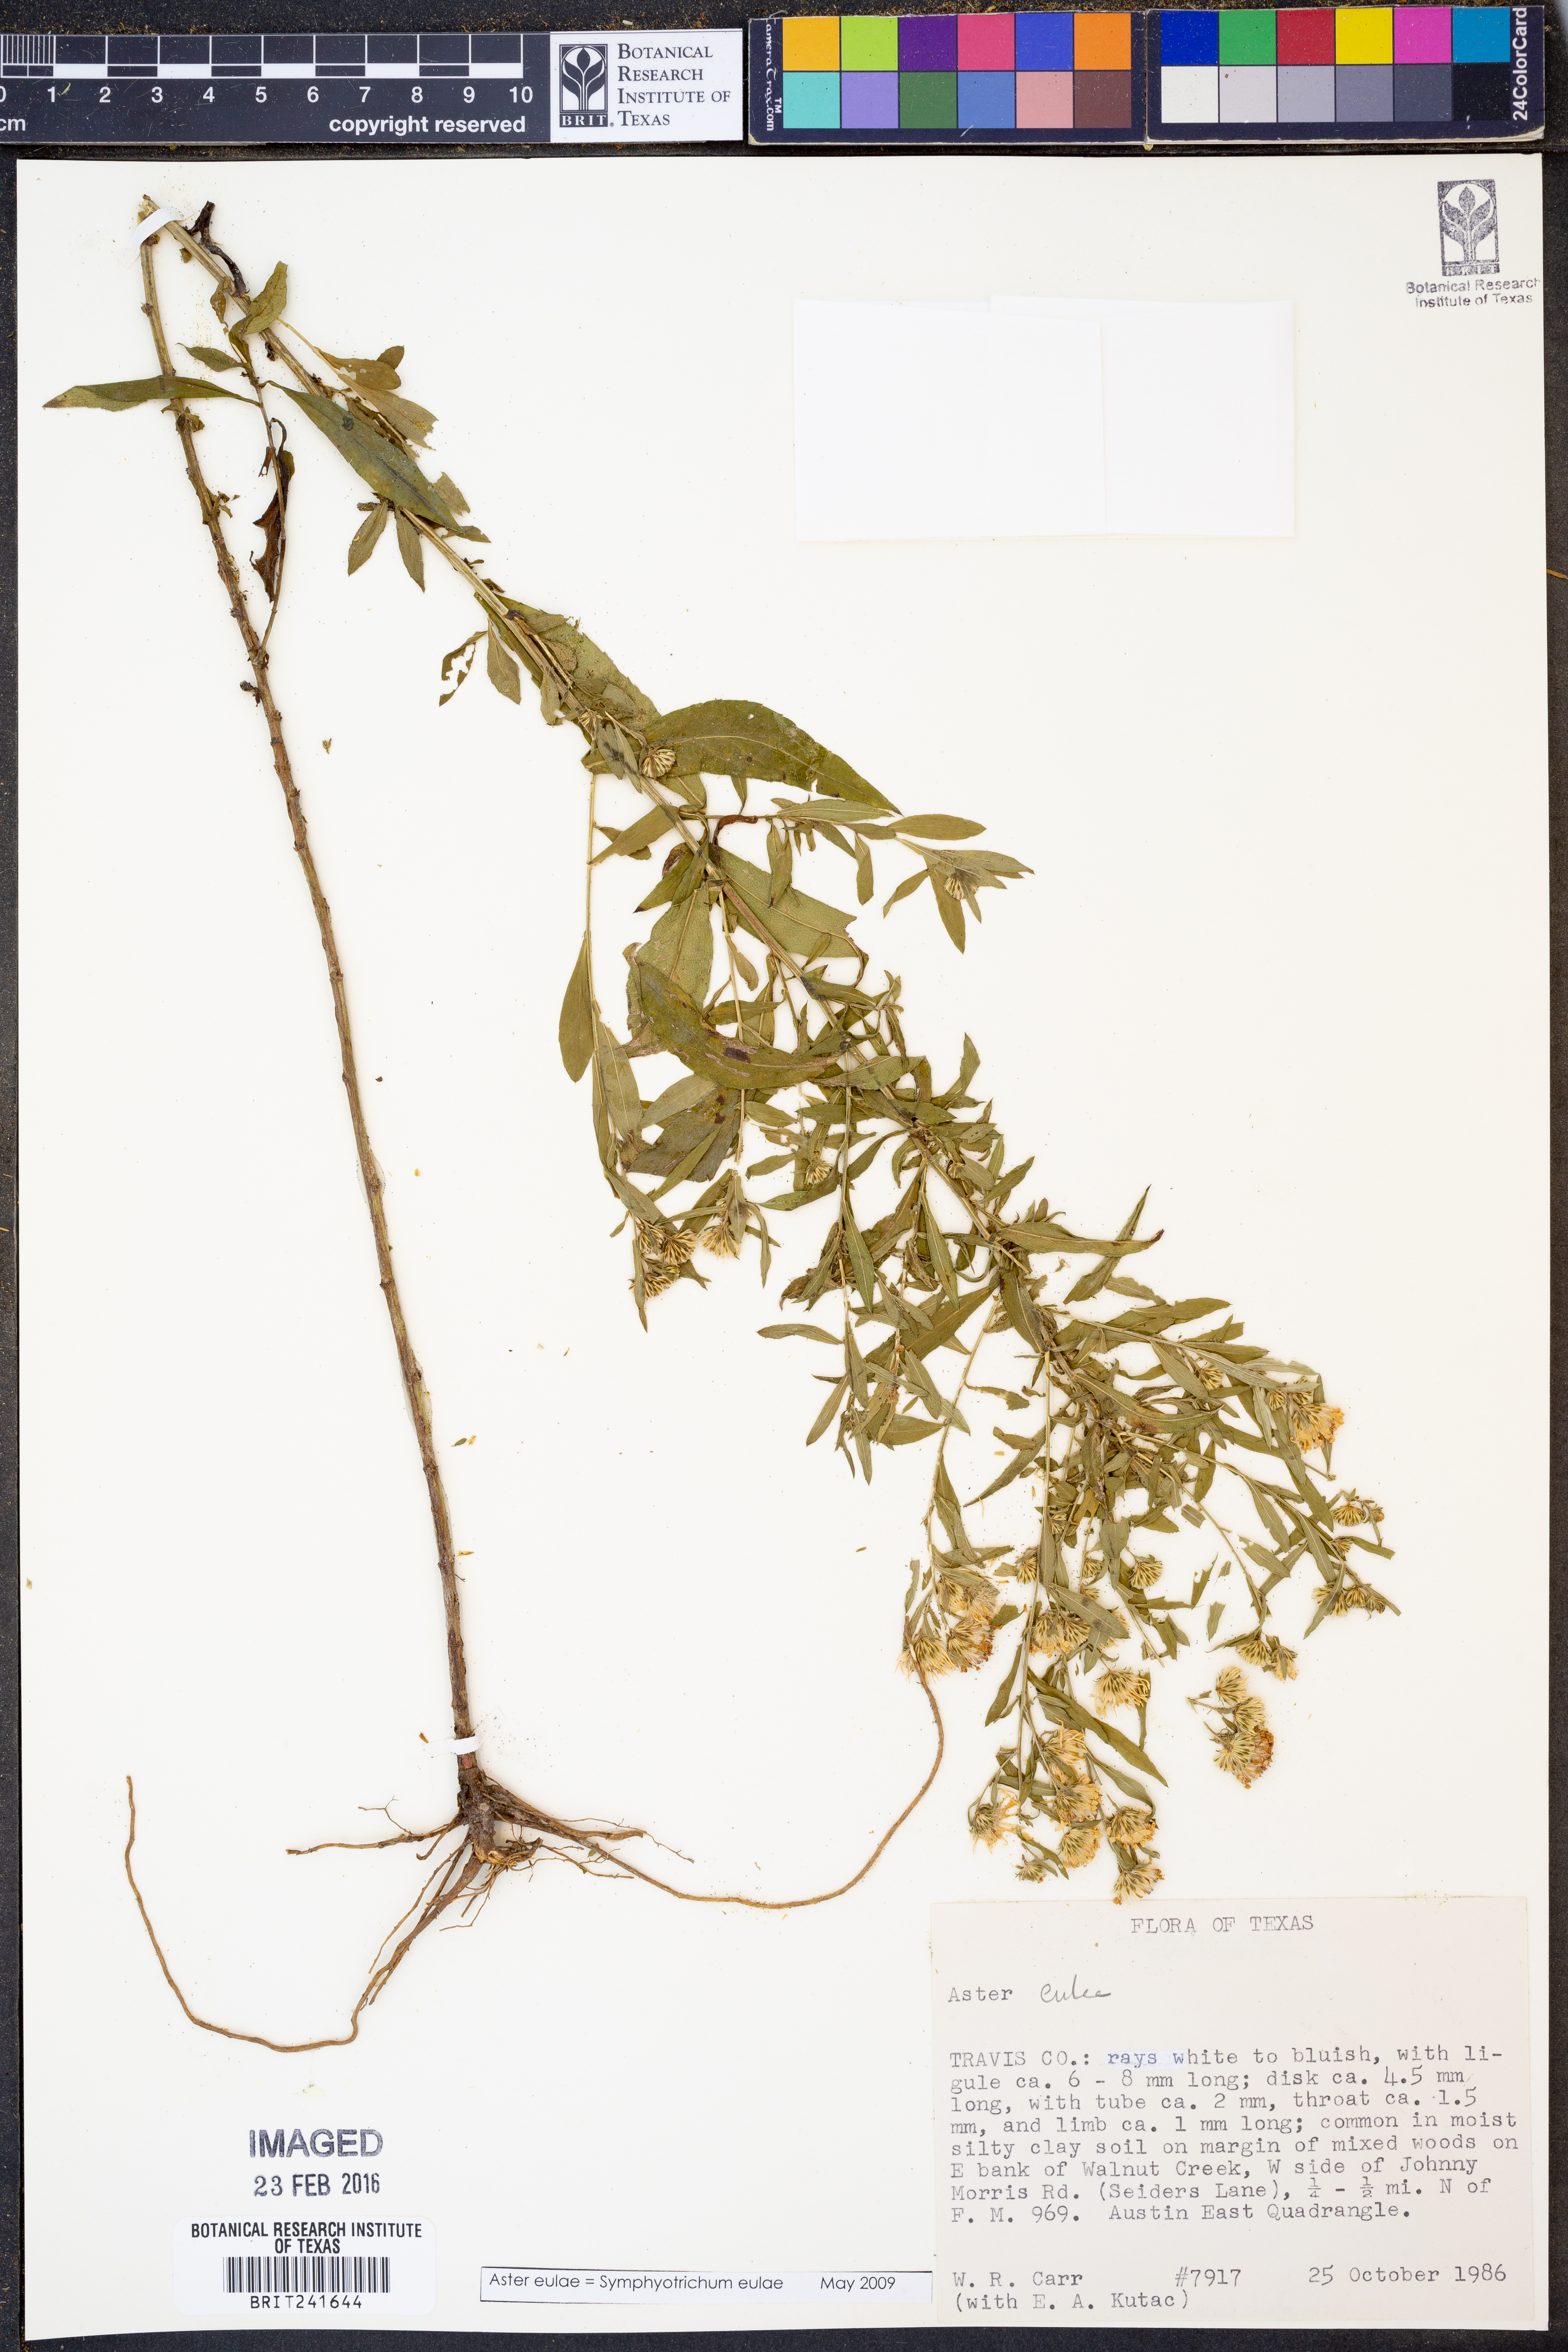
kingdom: Plantae
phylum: Tracheophyta
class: Magnoliopsida
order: Asterales
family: Asteraceae
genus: Symphyotrichum
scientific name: Symphyotrichum eulae
